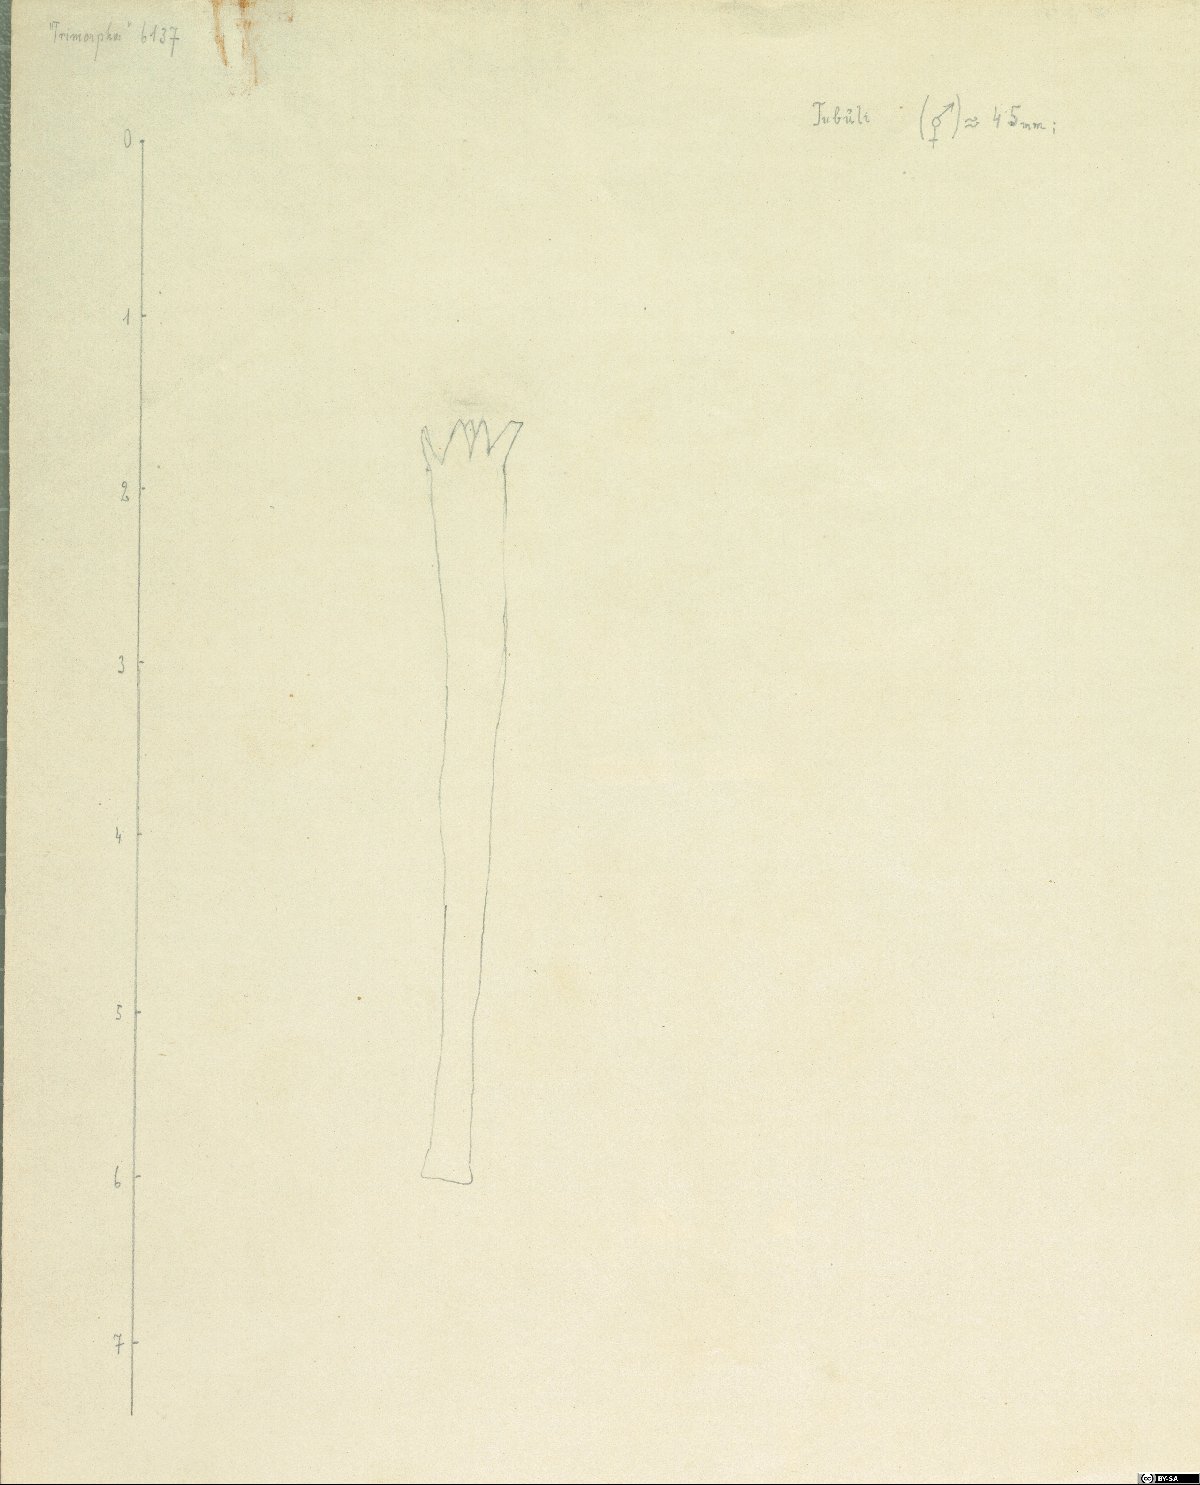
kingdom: Plantae
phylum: Tracheophyta
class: Magnoliopsida
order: Asterales
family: Asteraceae
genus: Erigeron
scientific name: Erigeron acris
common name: Blue fleabane
